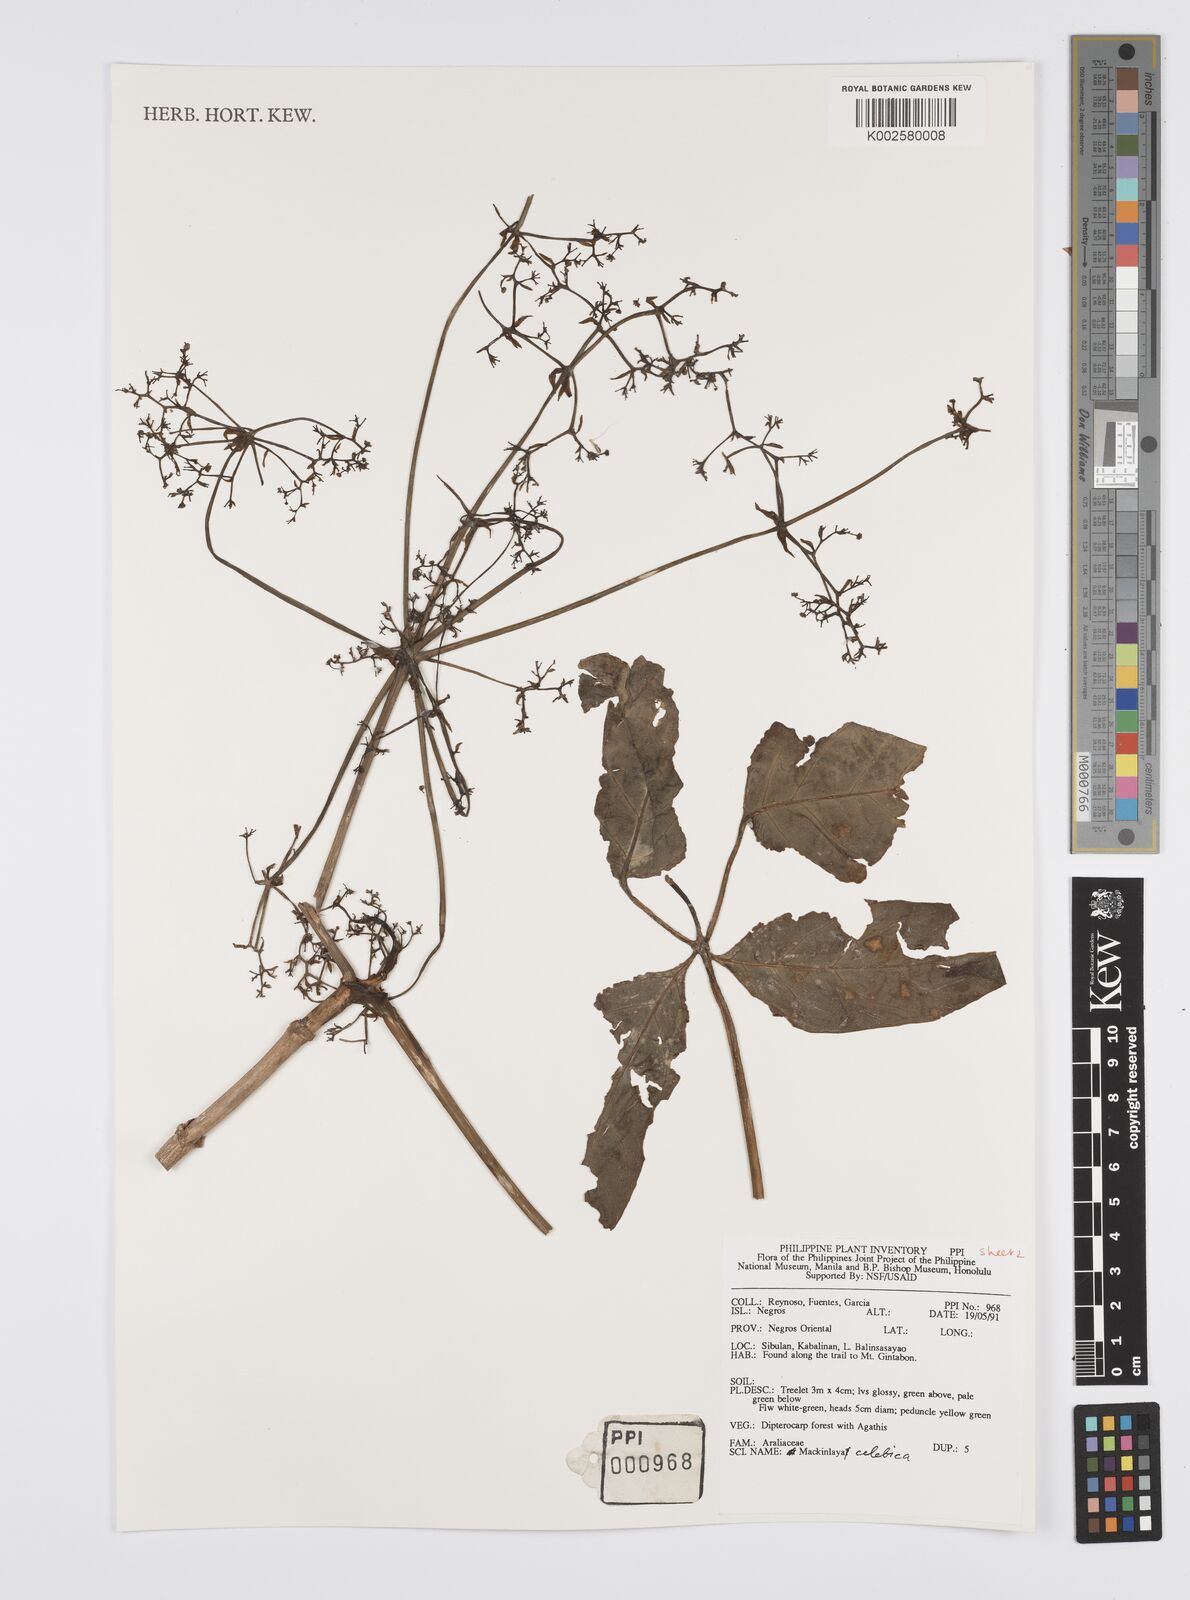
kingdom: Plantae
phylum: Tracheophyta
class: Magnoliopsida
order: Apiales
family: Apiaceae
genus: Mackinlaya
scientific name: Mackinlaya celebica
